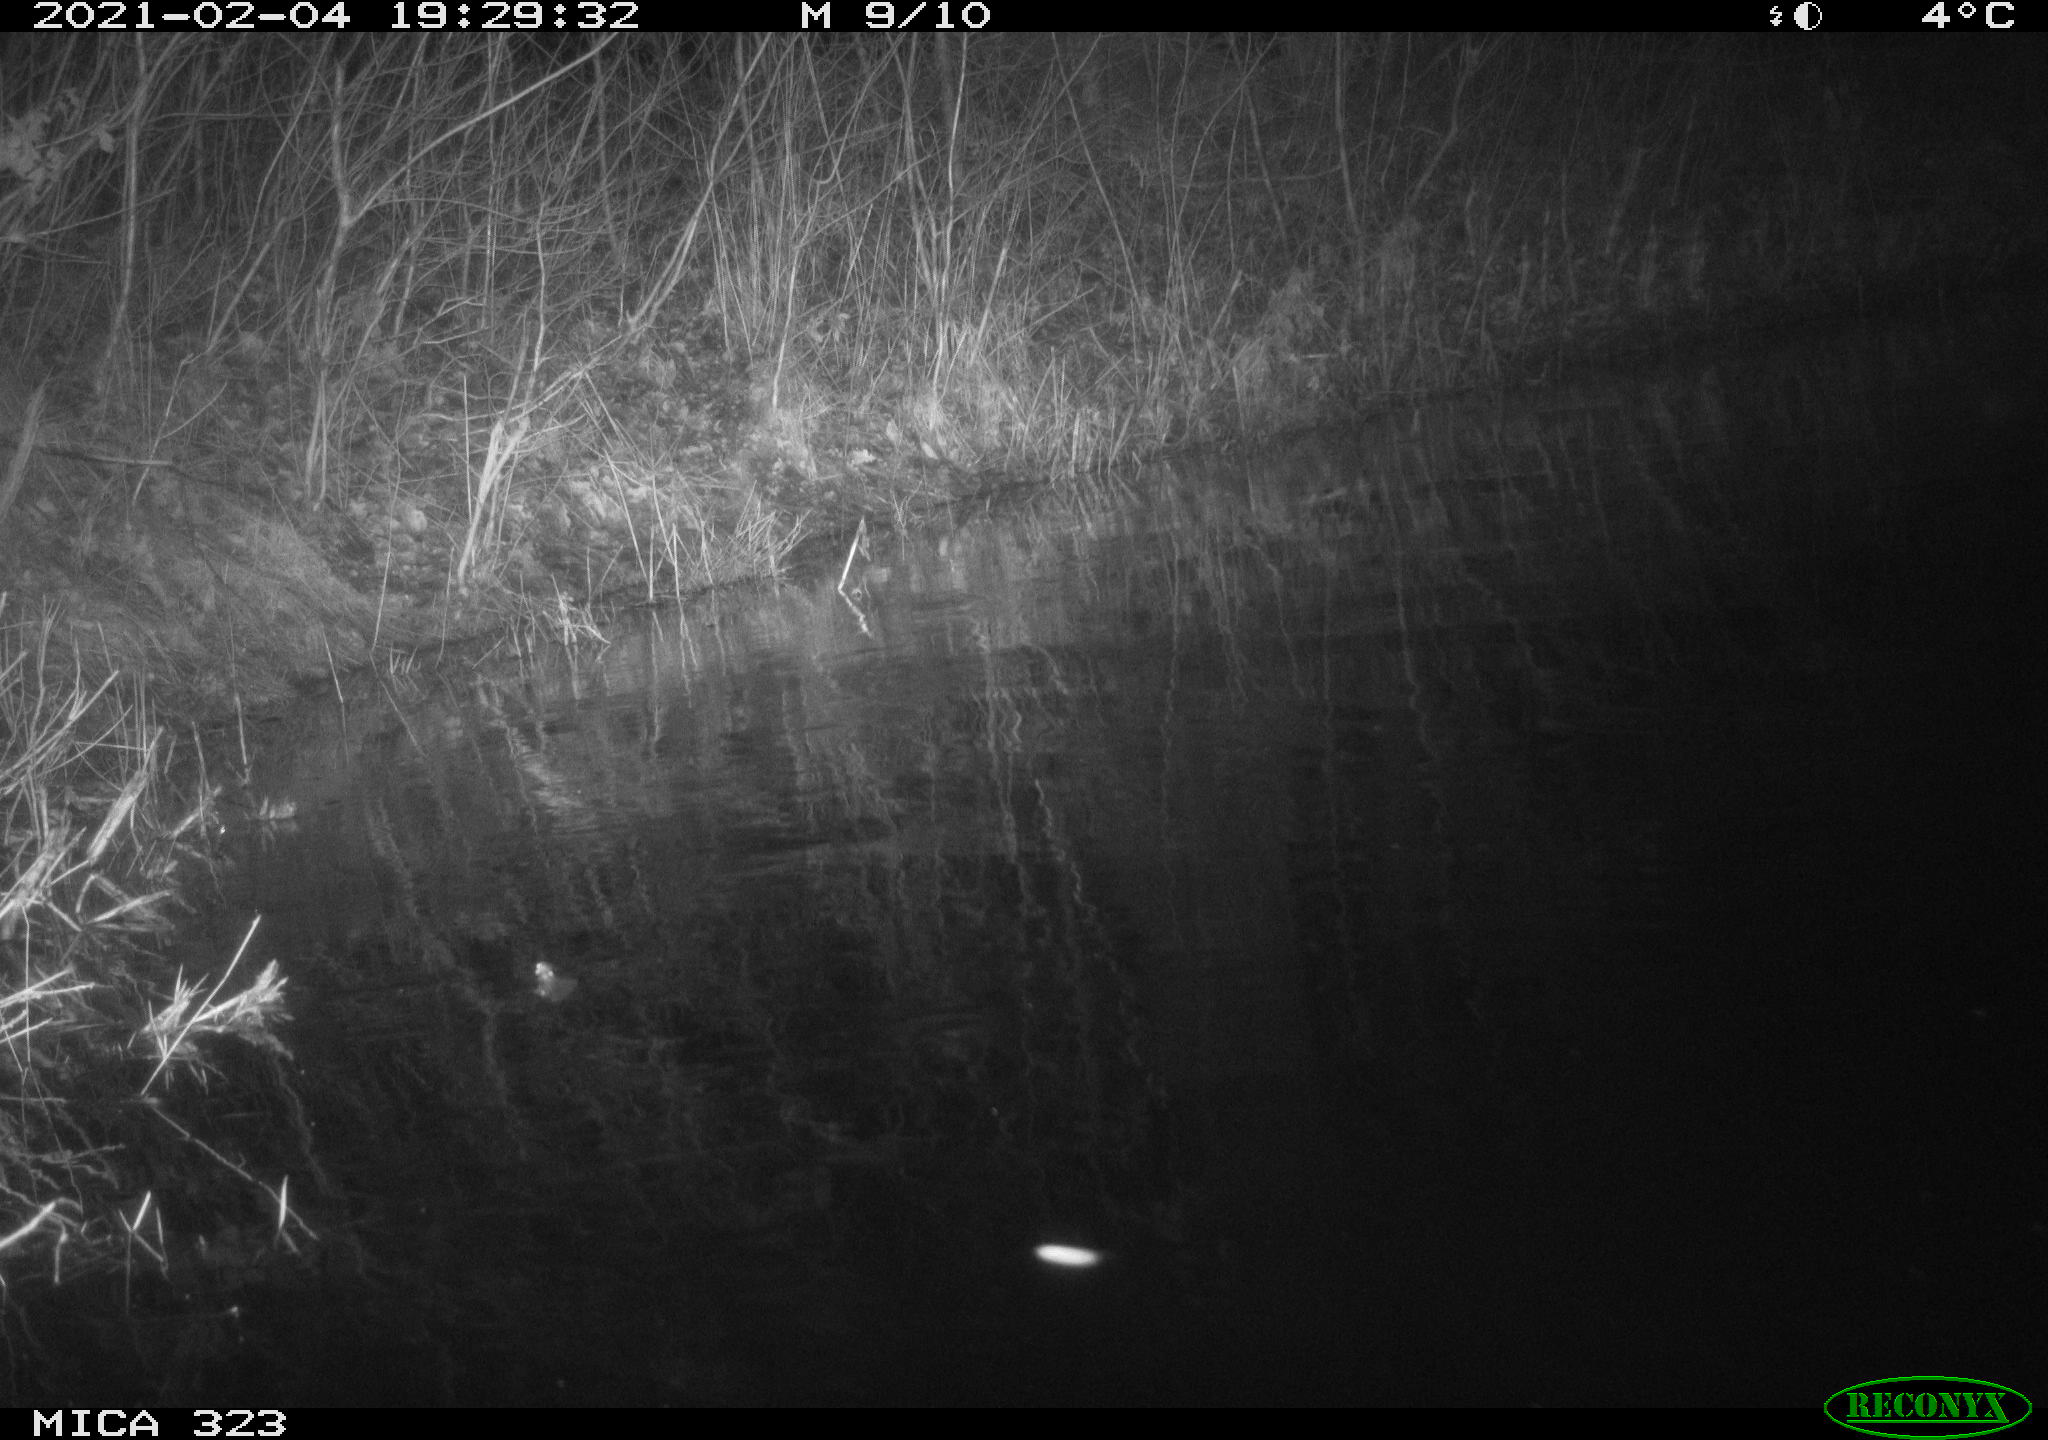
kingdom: Animalia
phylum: Chordata
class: Mammalia
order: Rodentia
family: Muridae
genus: Rattus
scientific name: Rattus norvegicus
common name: Brown rat
